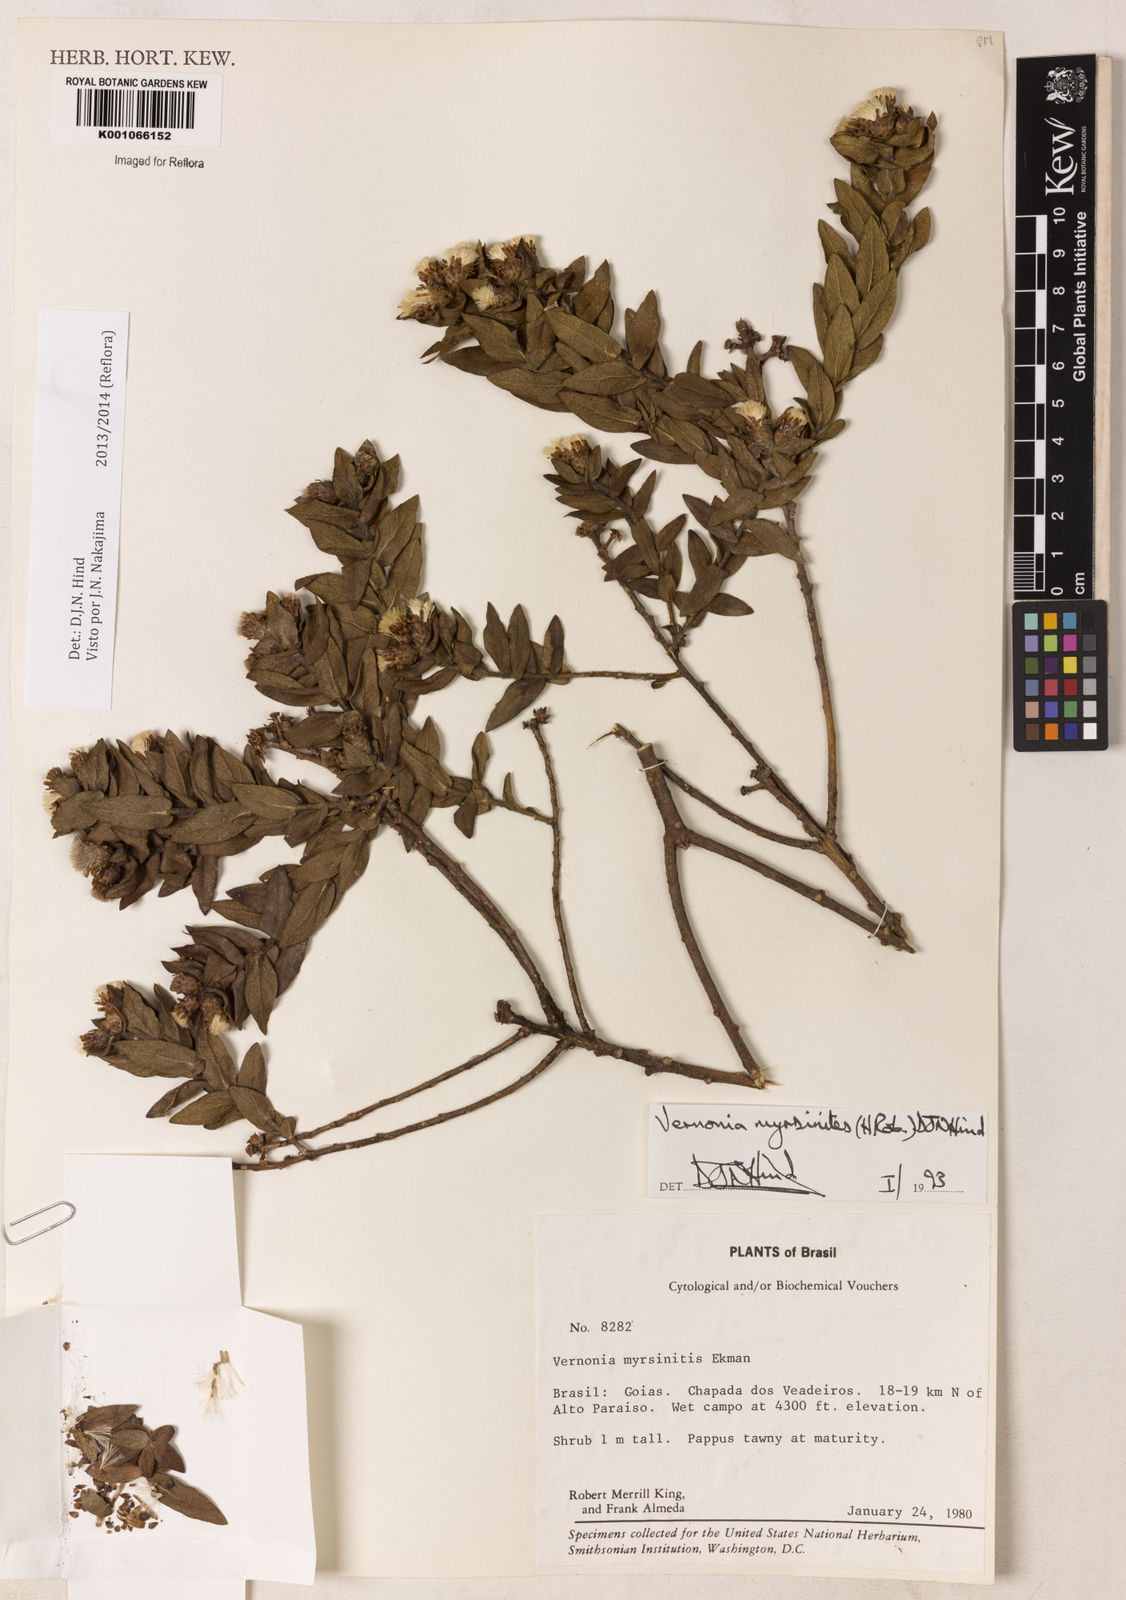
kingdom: Plantae
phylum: Tracheophyta
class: Magnoliopsida
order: Asterales
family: Asteraceae
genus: Lessingianthus
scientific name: Lessingianthus myrsinites
